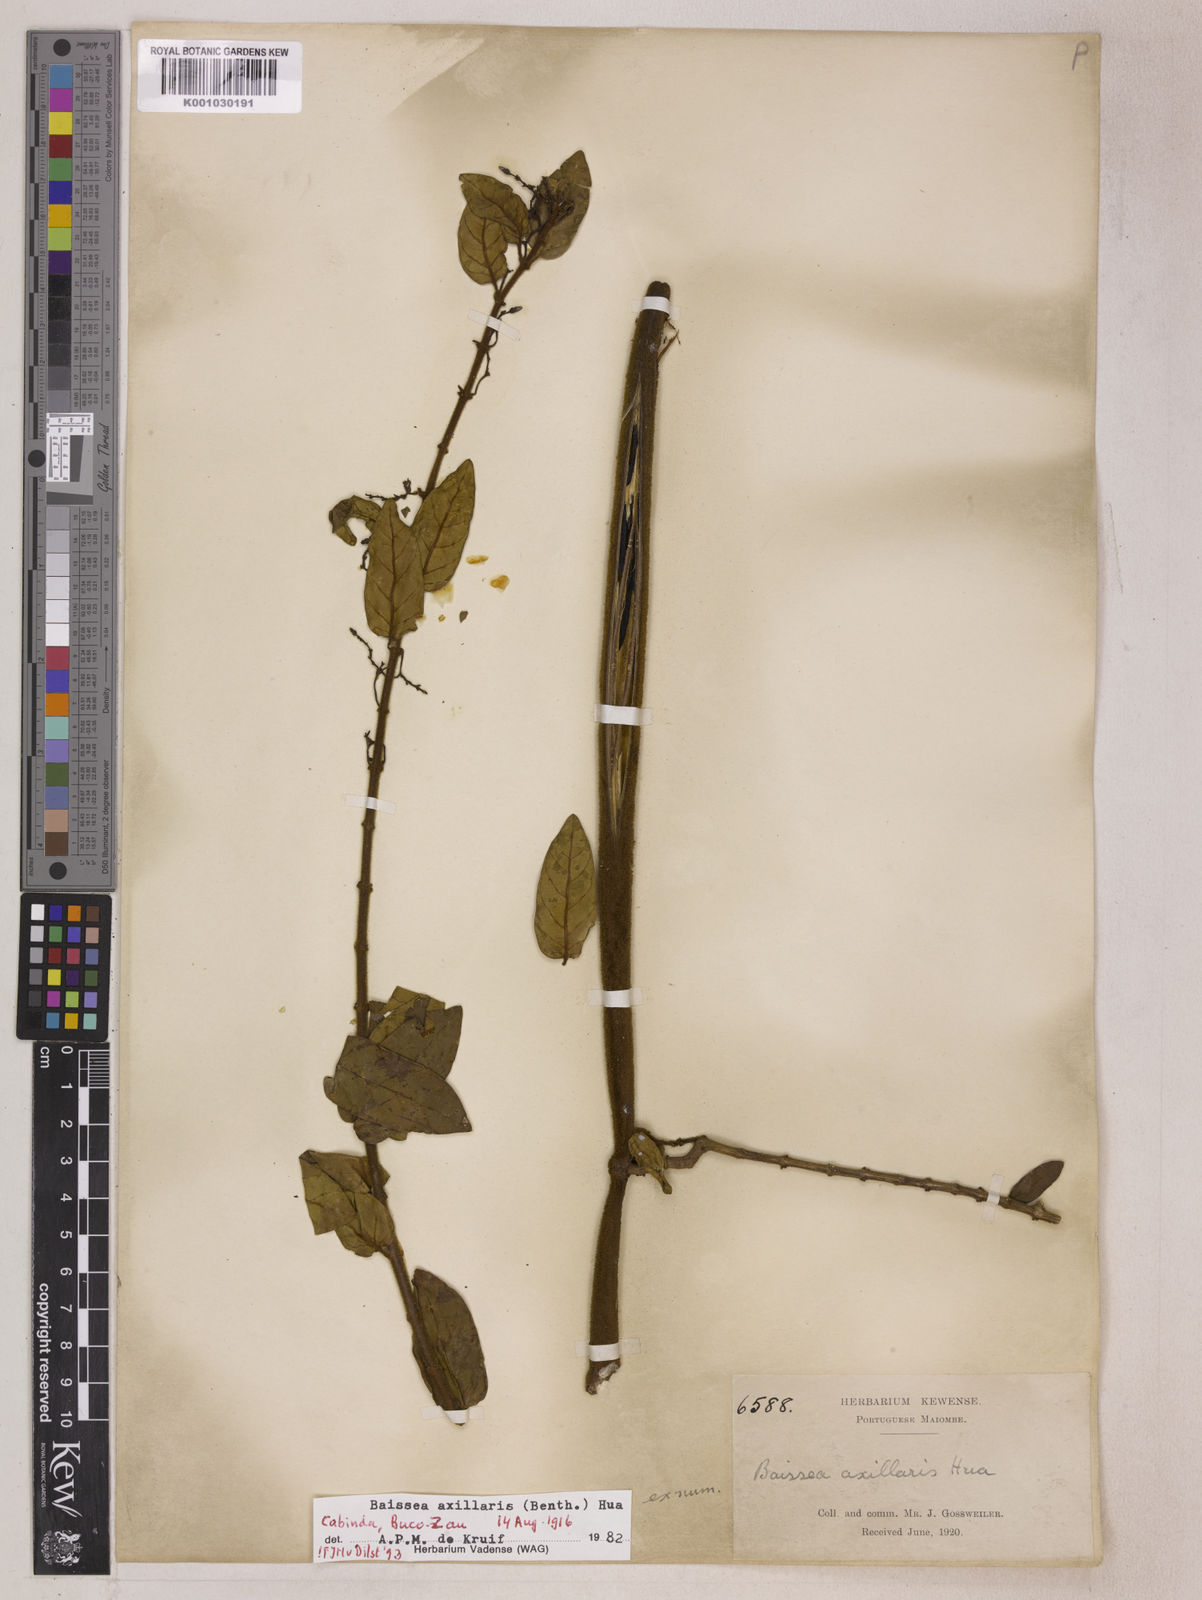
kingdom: Plantae
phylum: Tracheophyta
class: Magnoliopsida
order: Gentianales
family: Apocynaceae
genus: Baissea
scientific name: Baissea axillaris
